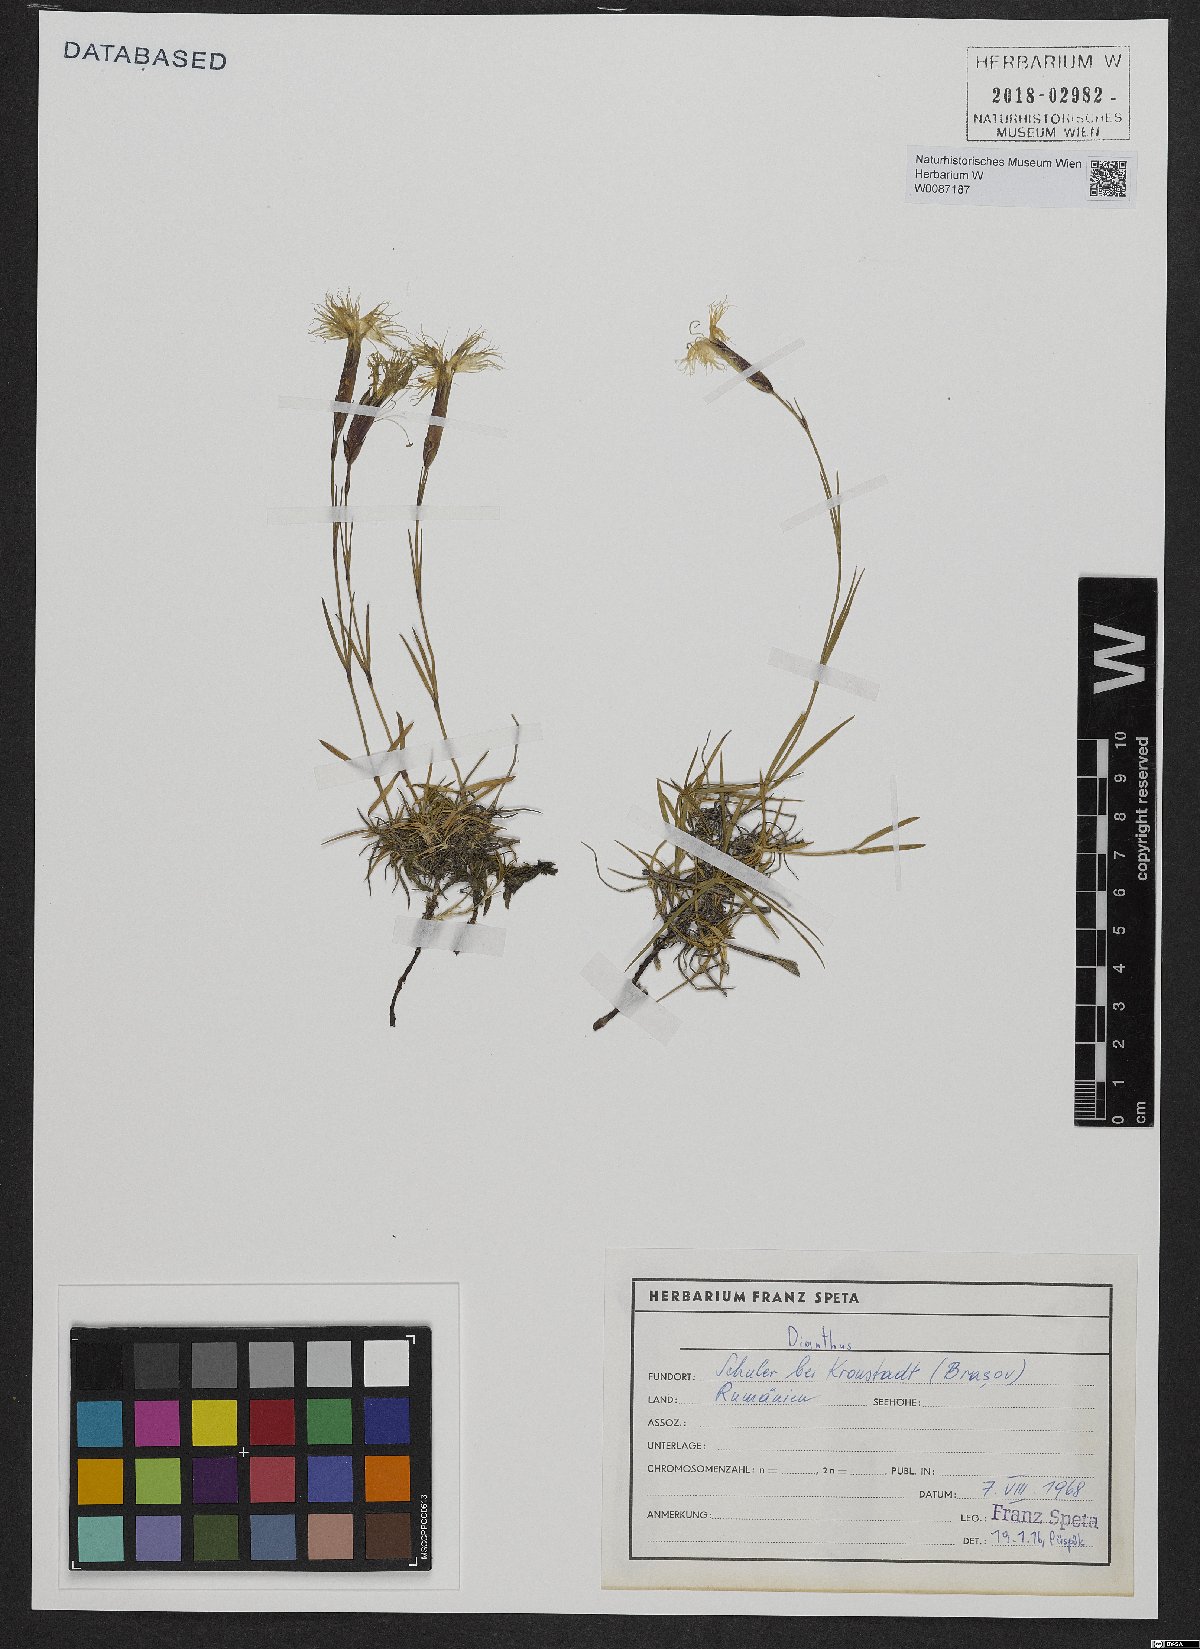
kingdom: Plantae
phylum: Tracheophyta
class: Magnoliopsida
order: Caryophyllales
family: Caryophyllaceae
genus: Dianthus
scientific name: Dianthus
